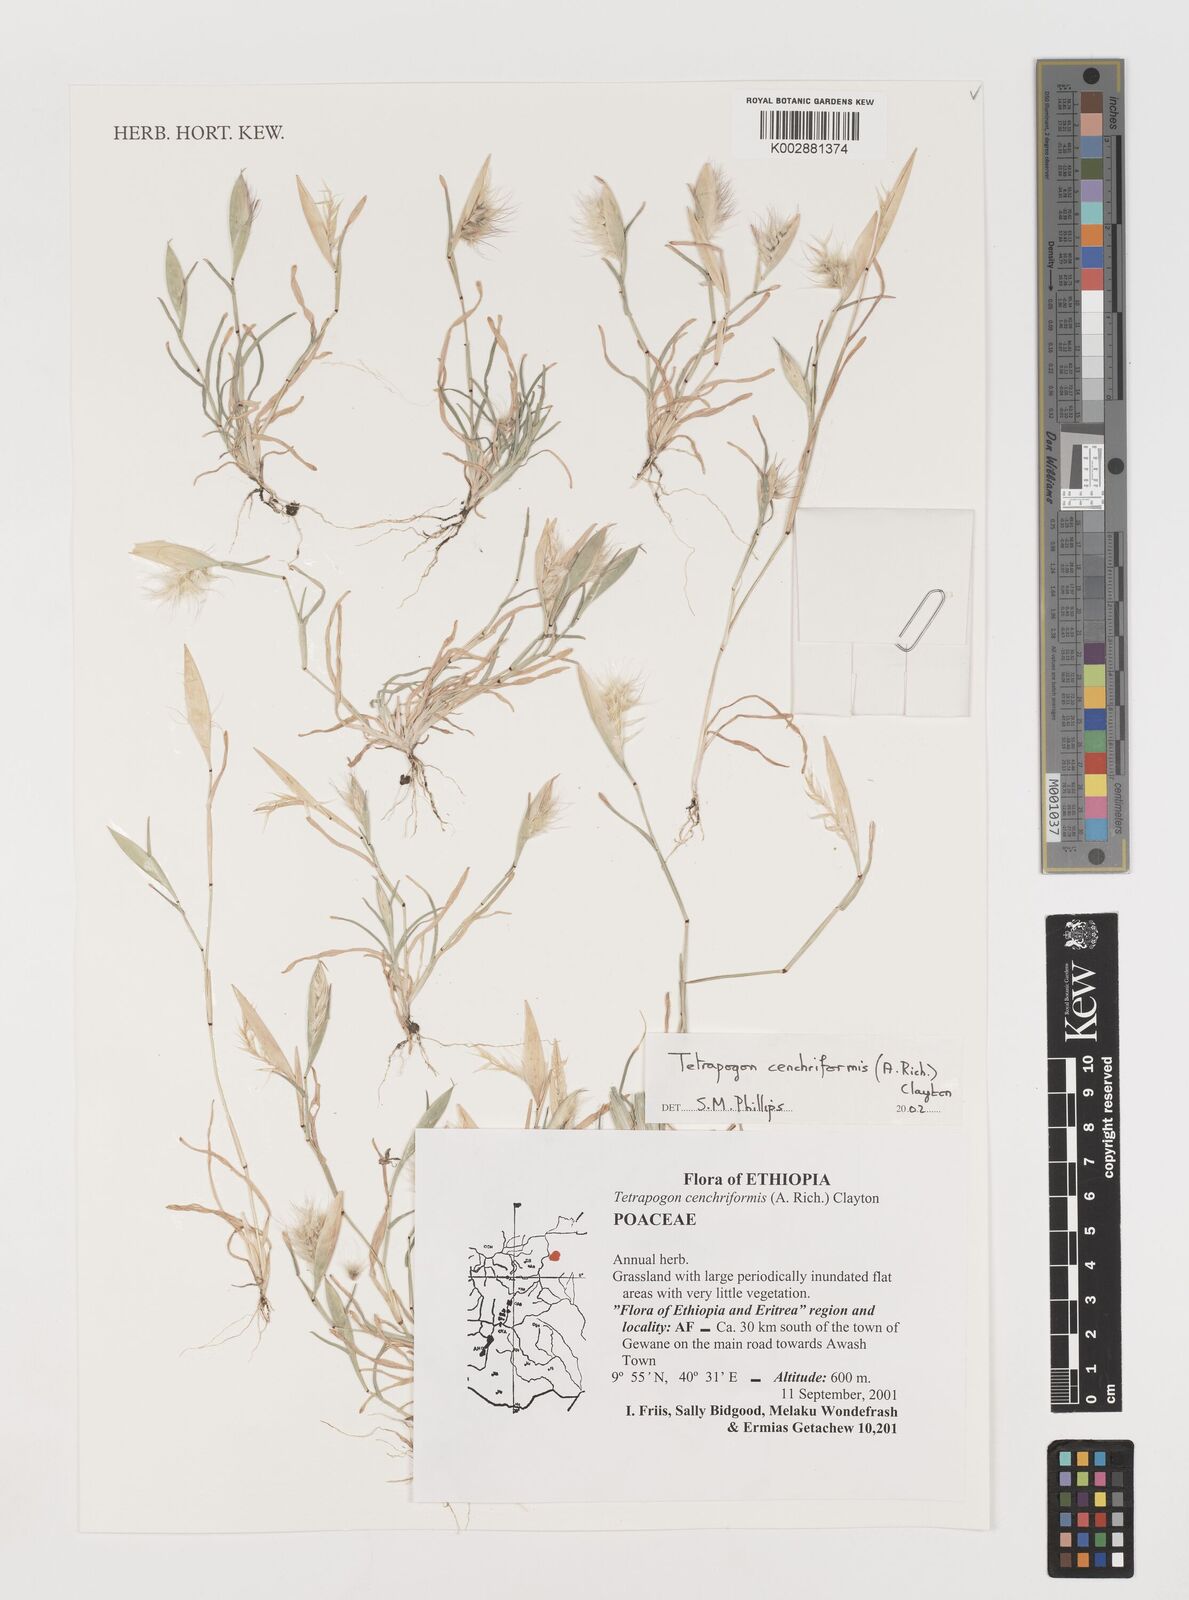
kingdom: Plantae
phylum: Tracheophyta
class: Liliopsida
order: Poales
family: Poaceae
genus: Tetrapogon
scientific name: Tetrapogon cenchriformis
